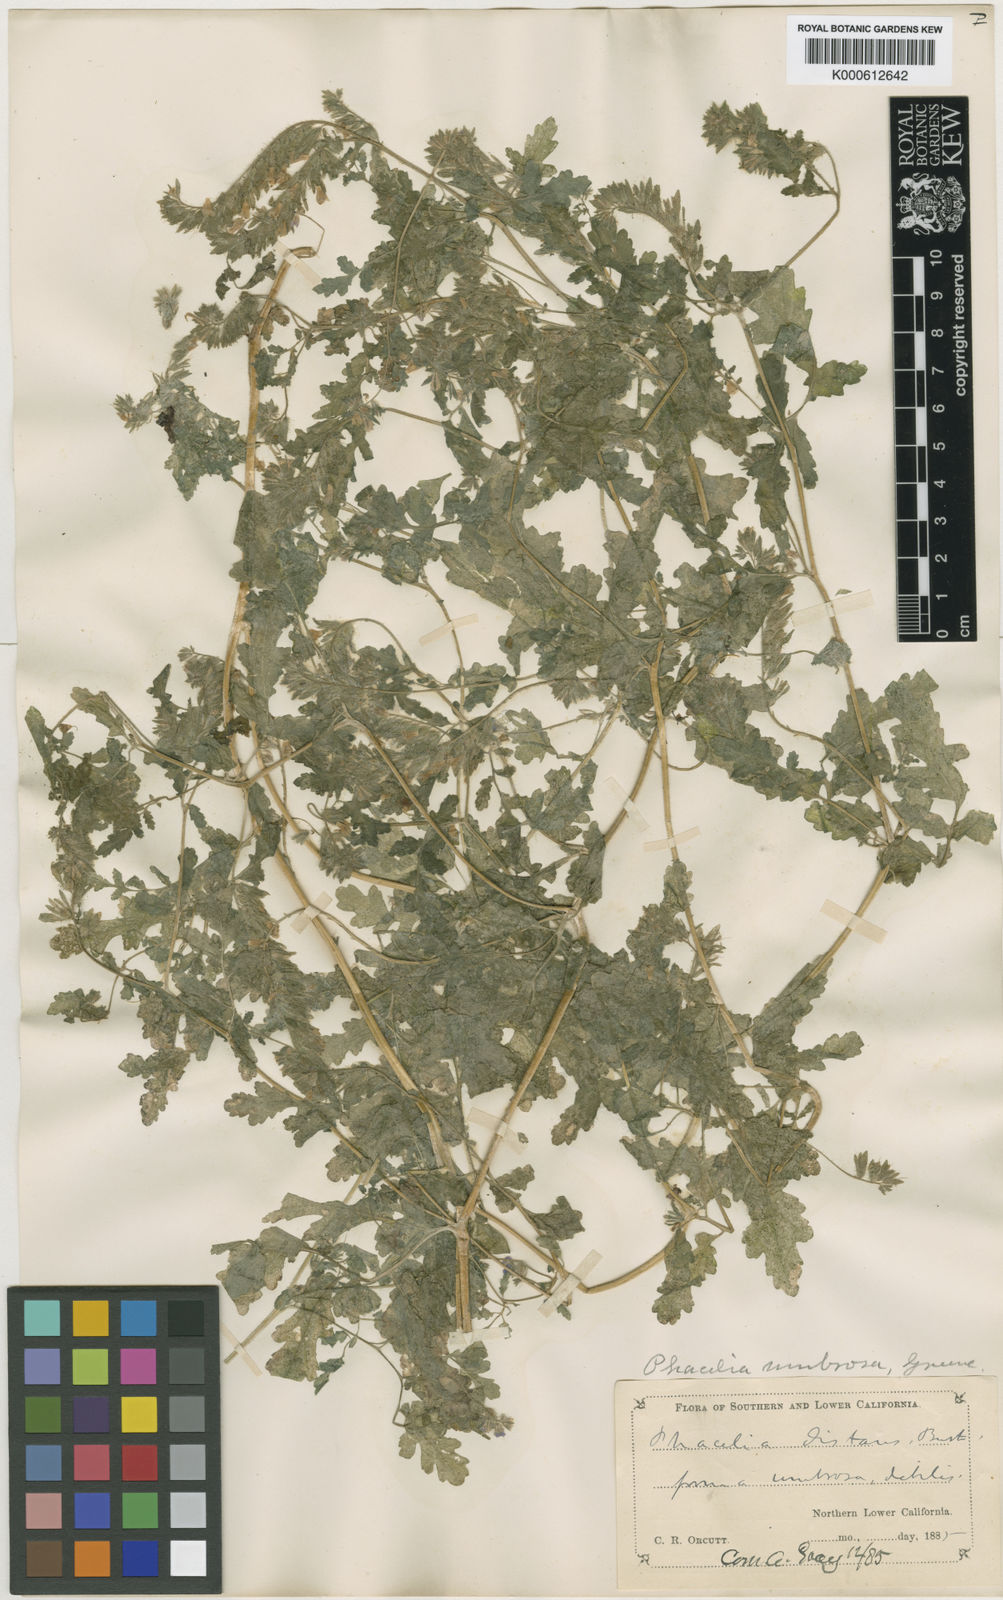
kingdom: Plantae
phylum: Tracheophyta
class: Magnoliopsida
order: Boraginales
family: Hydrophyllaceae
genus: Phacelia
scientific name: Phacelia umbrosa
